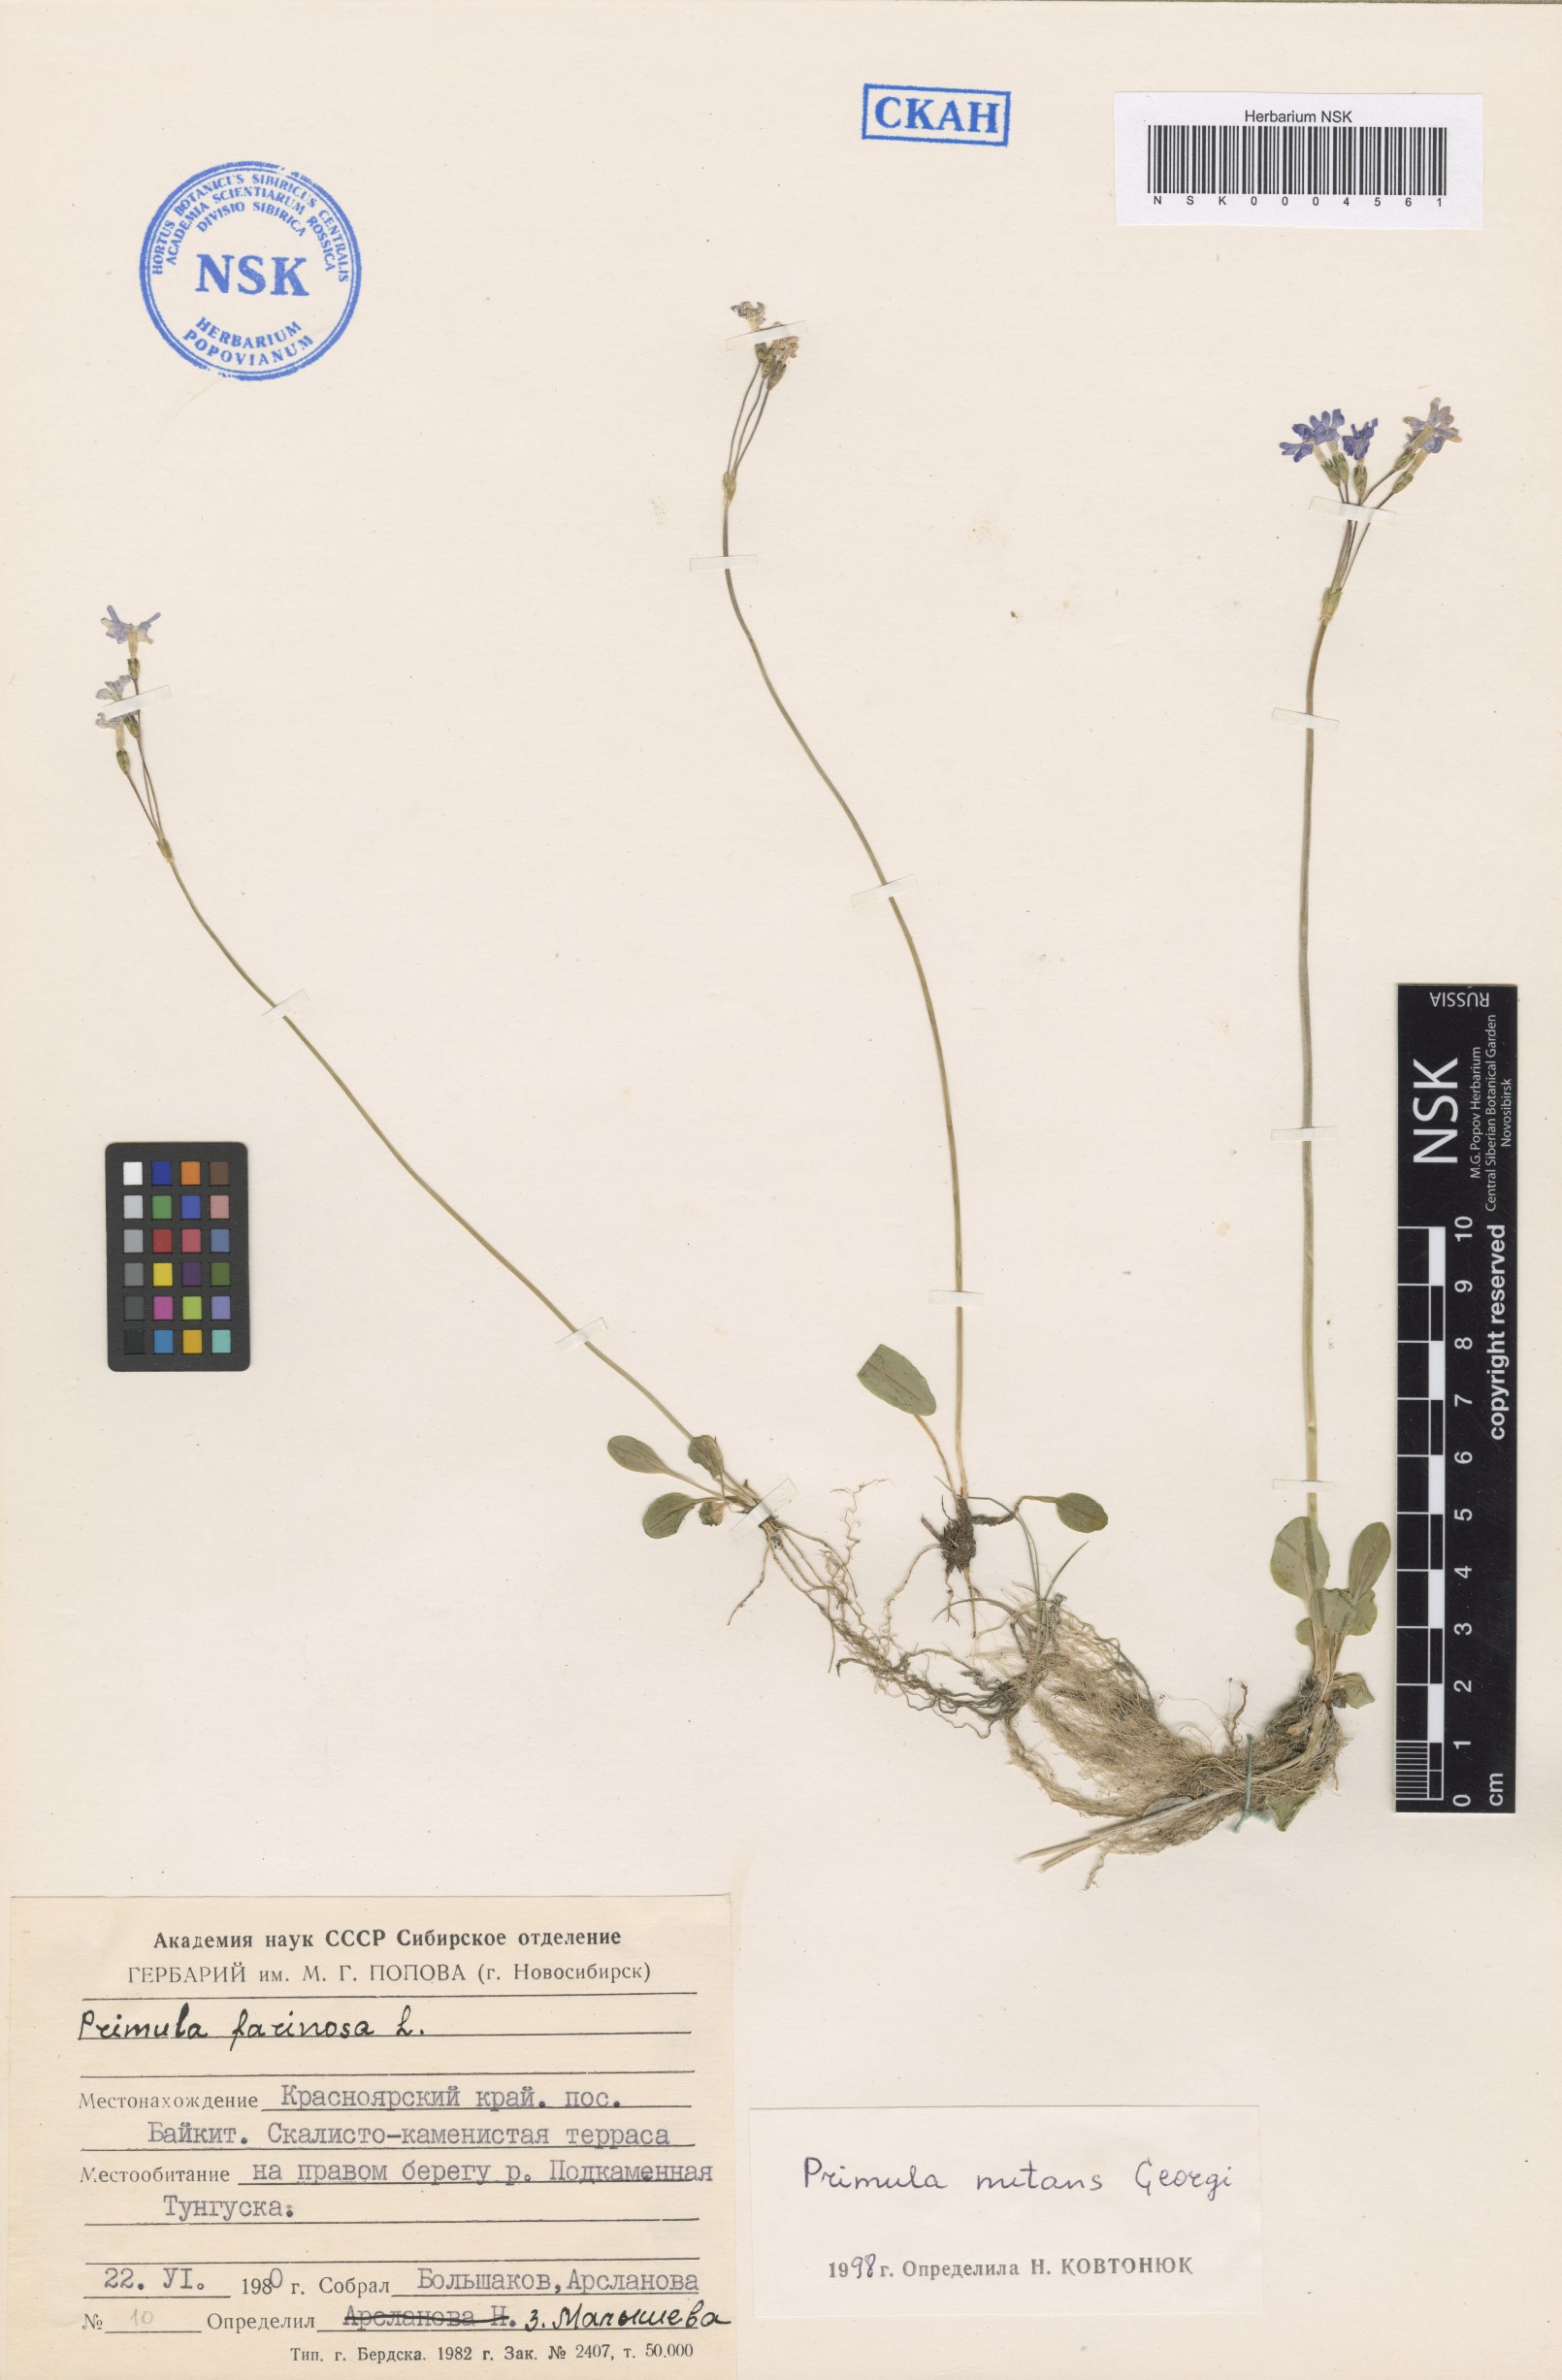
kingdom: Plantae
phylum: Tracheophyta
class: Magnoliopsida
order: Ericales
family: Primulaceae
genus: Primula
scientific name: Primula nutans
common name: Siberian primrose
